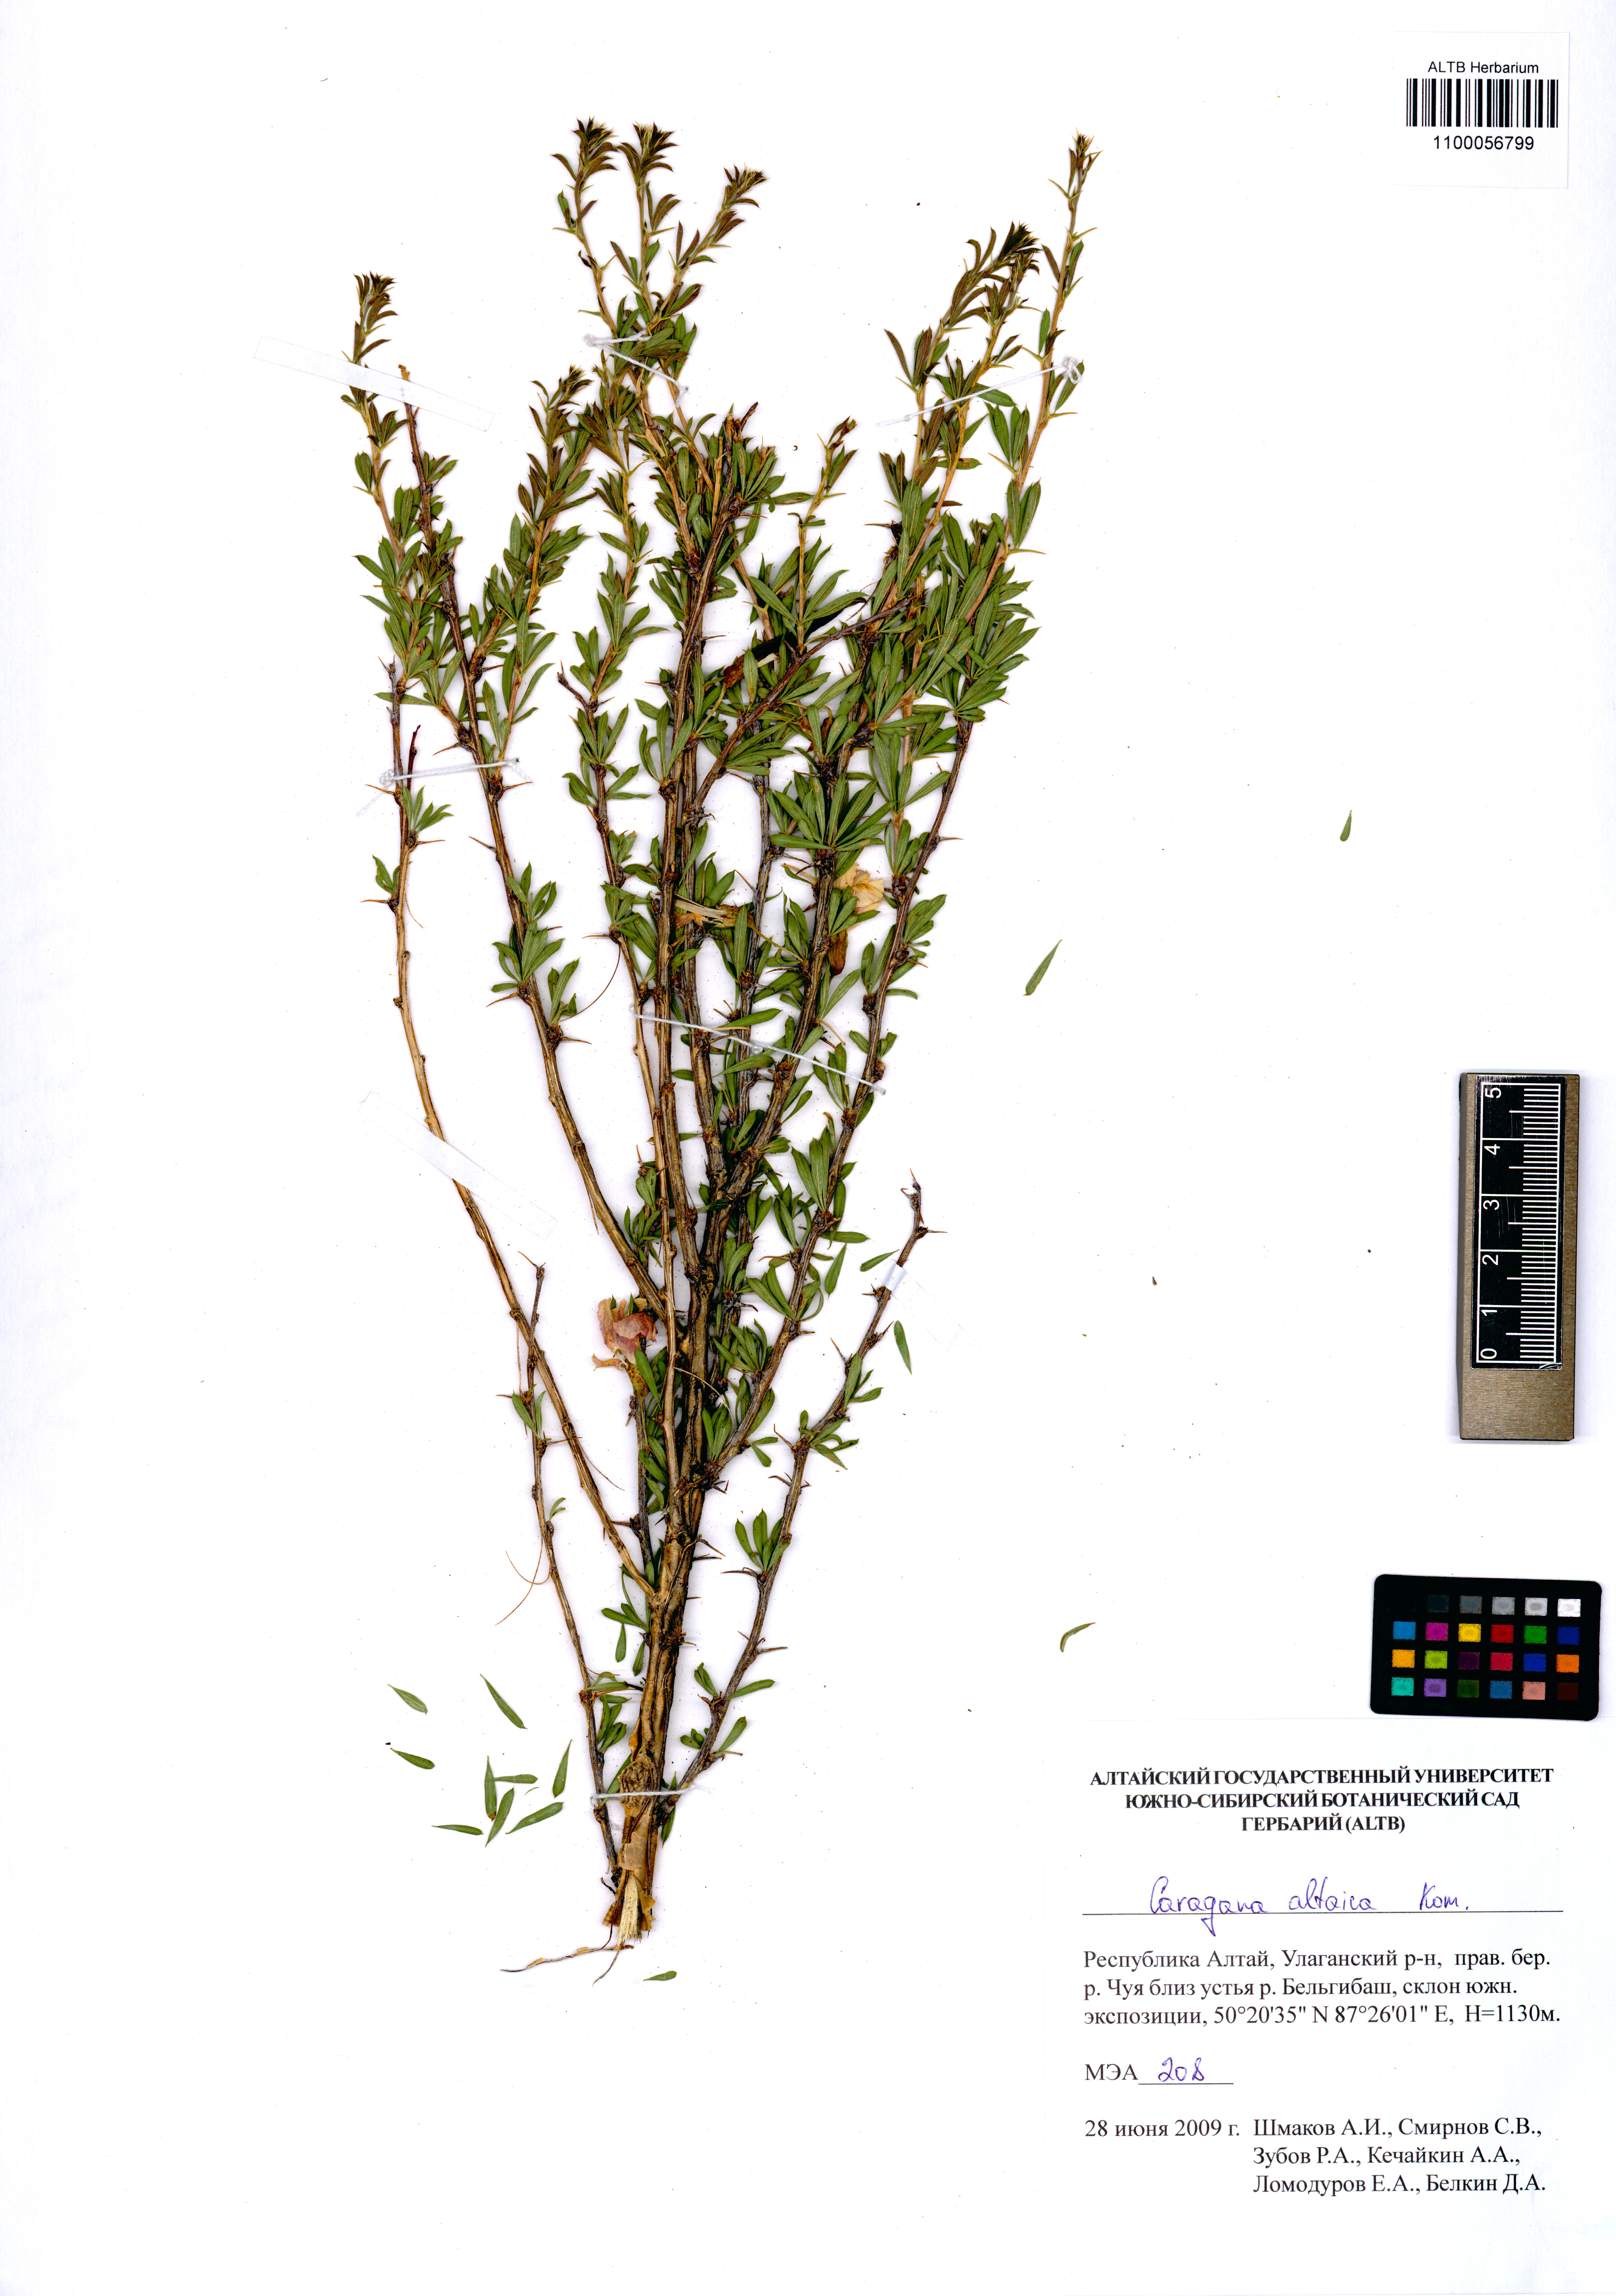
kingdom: Plantae
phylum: Tracheophyta
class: Magnoliopsida
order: Fabales
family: Fabaceae
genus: Caragana
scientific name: Caragana pygmaea
